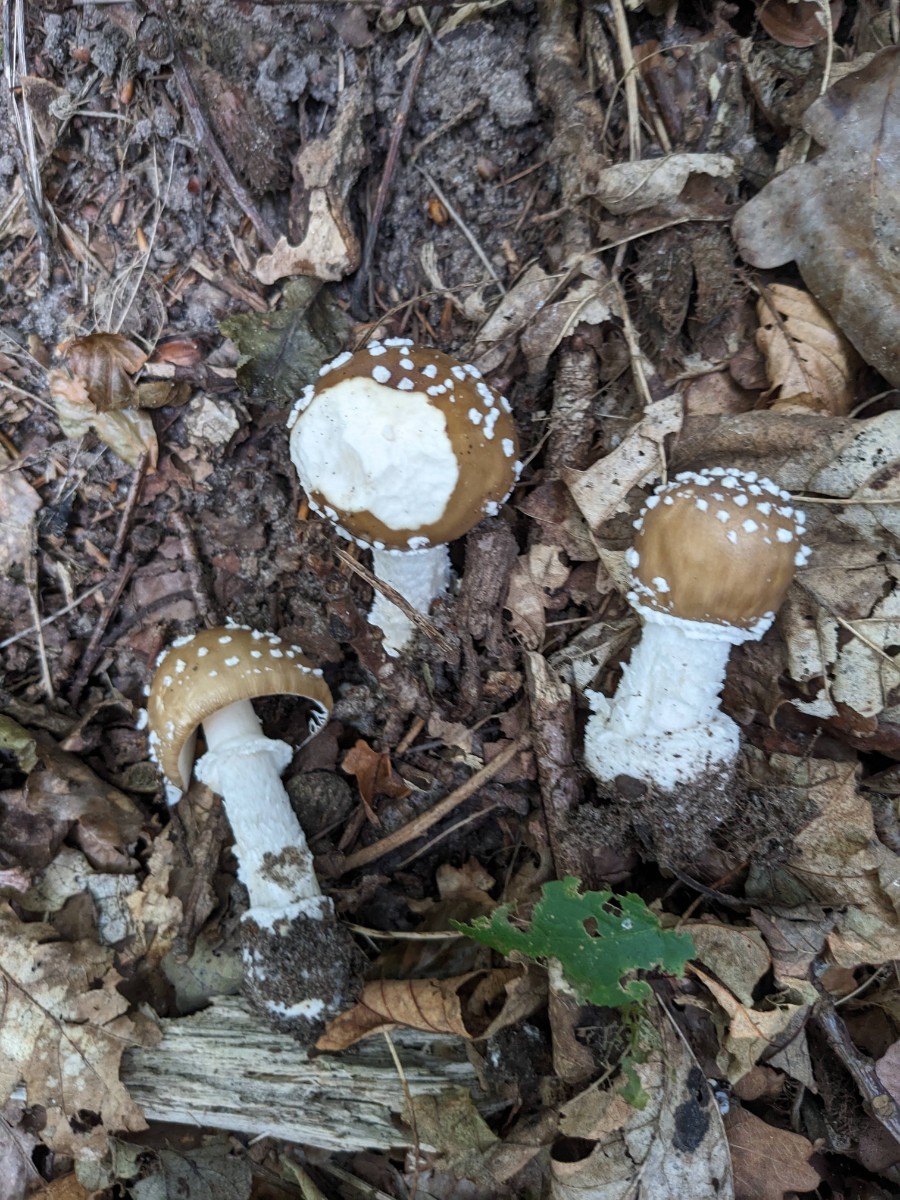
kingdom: Fungi
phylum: Basidiomycota
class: Agaricomycetes
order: Agaricales
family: Amanitaceae
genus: Amanita
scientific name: Amanita pantherina
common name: panter-fluesvamp
